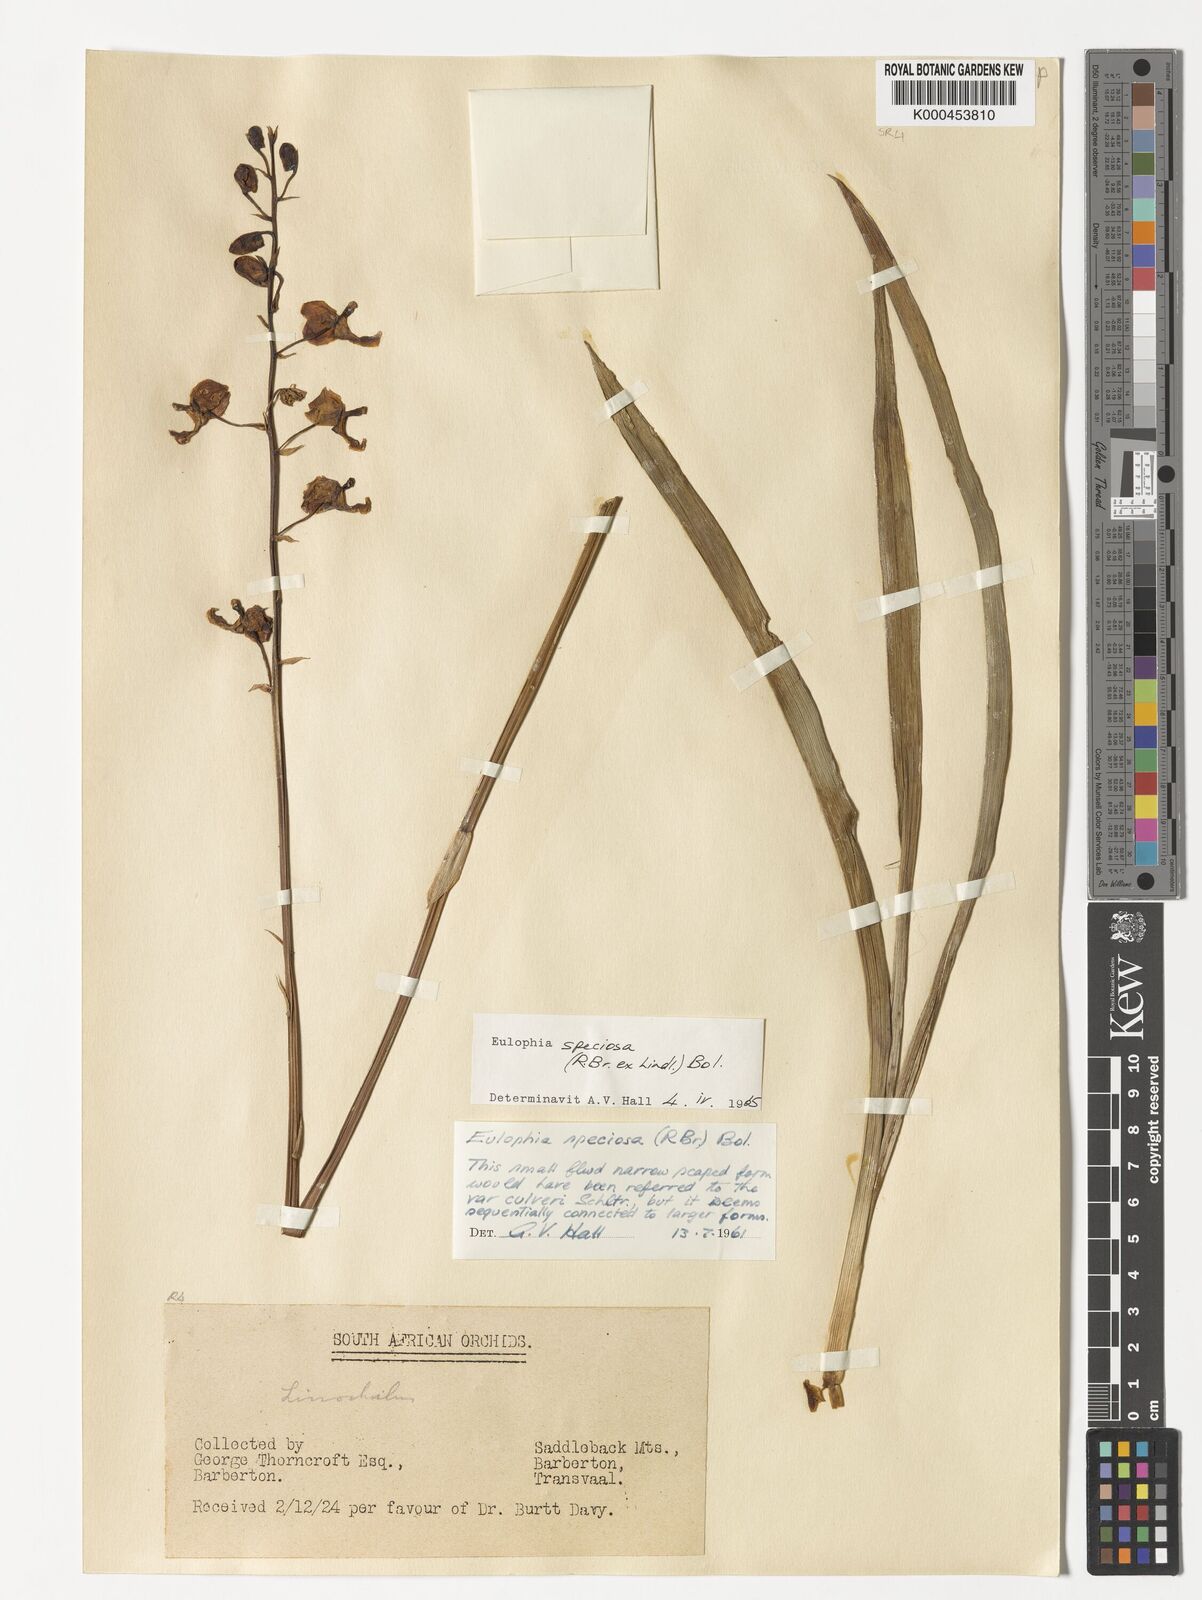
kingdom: Plantae
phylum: Tracheophyta
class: Liliopsida
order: Asparagales
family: Orchidaceae
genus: Eulophia
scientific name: Eulophia speciosa
